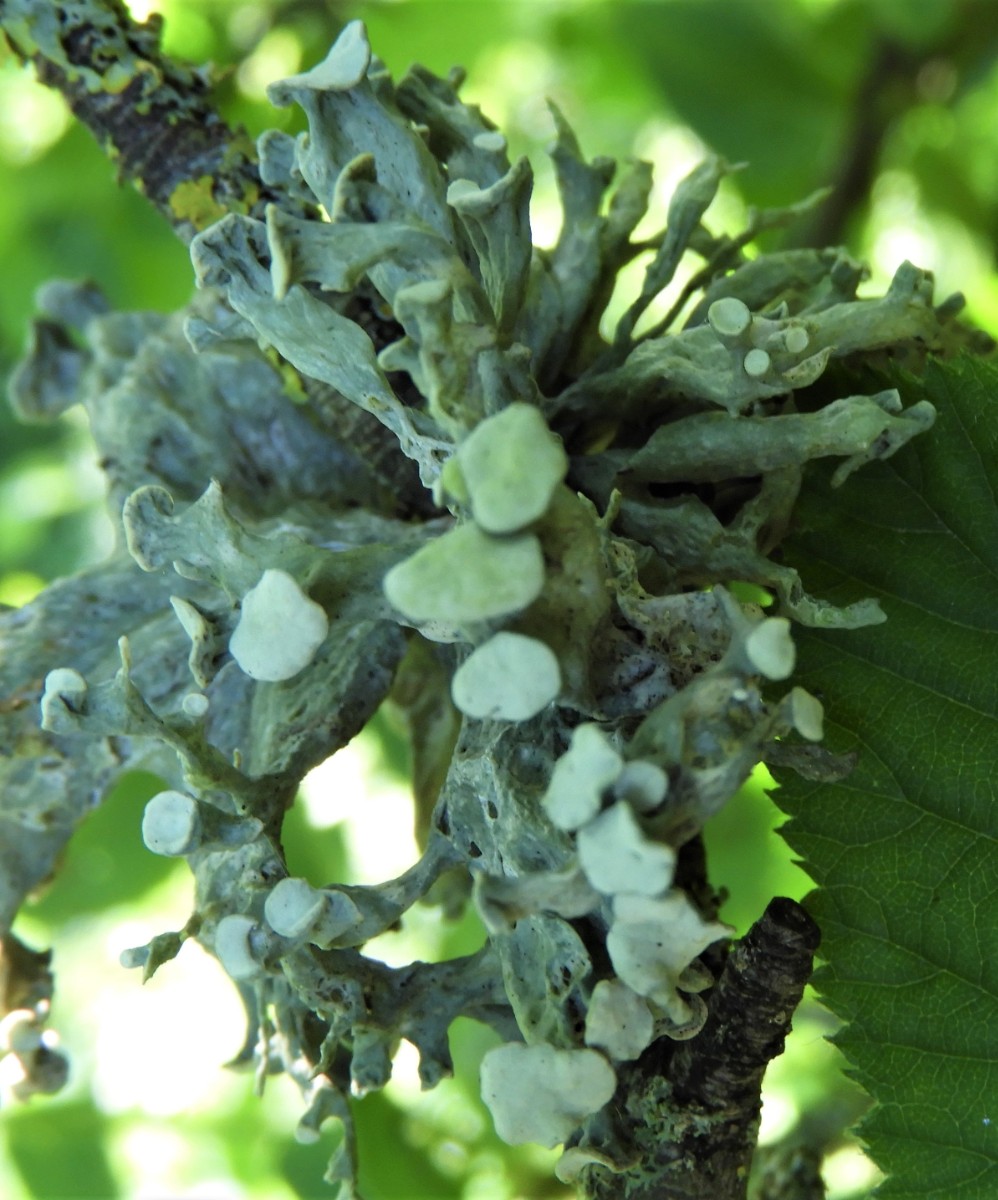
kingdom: Fungi
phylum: Ascomycota
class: Lecanoromycetes
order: Lecanorales
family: Ramalinaceae
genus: Ramalina
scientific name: Ramalina fastigiata
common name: tue-grenlav
